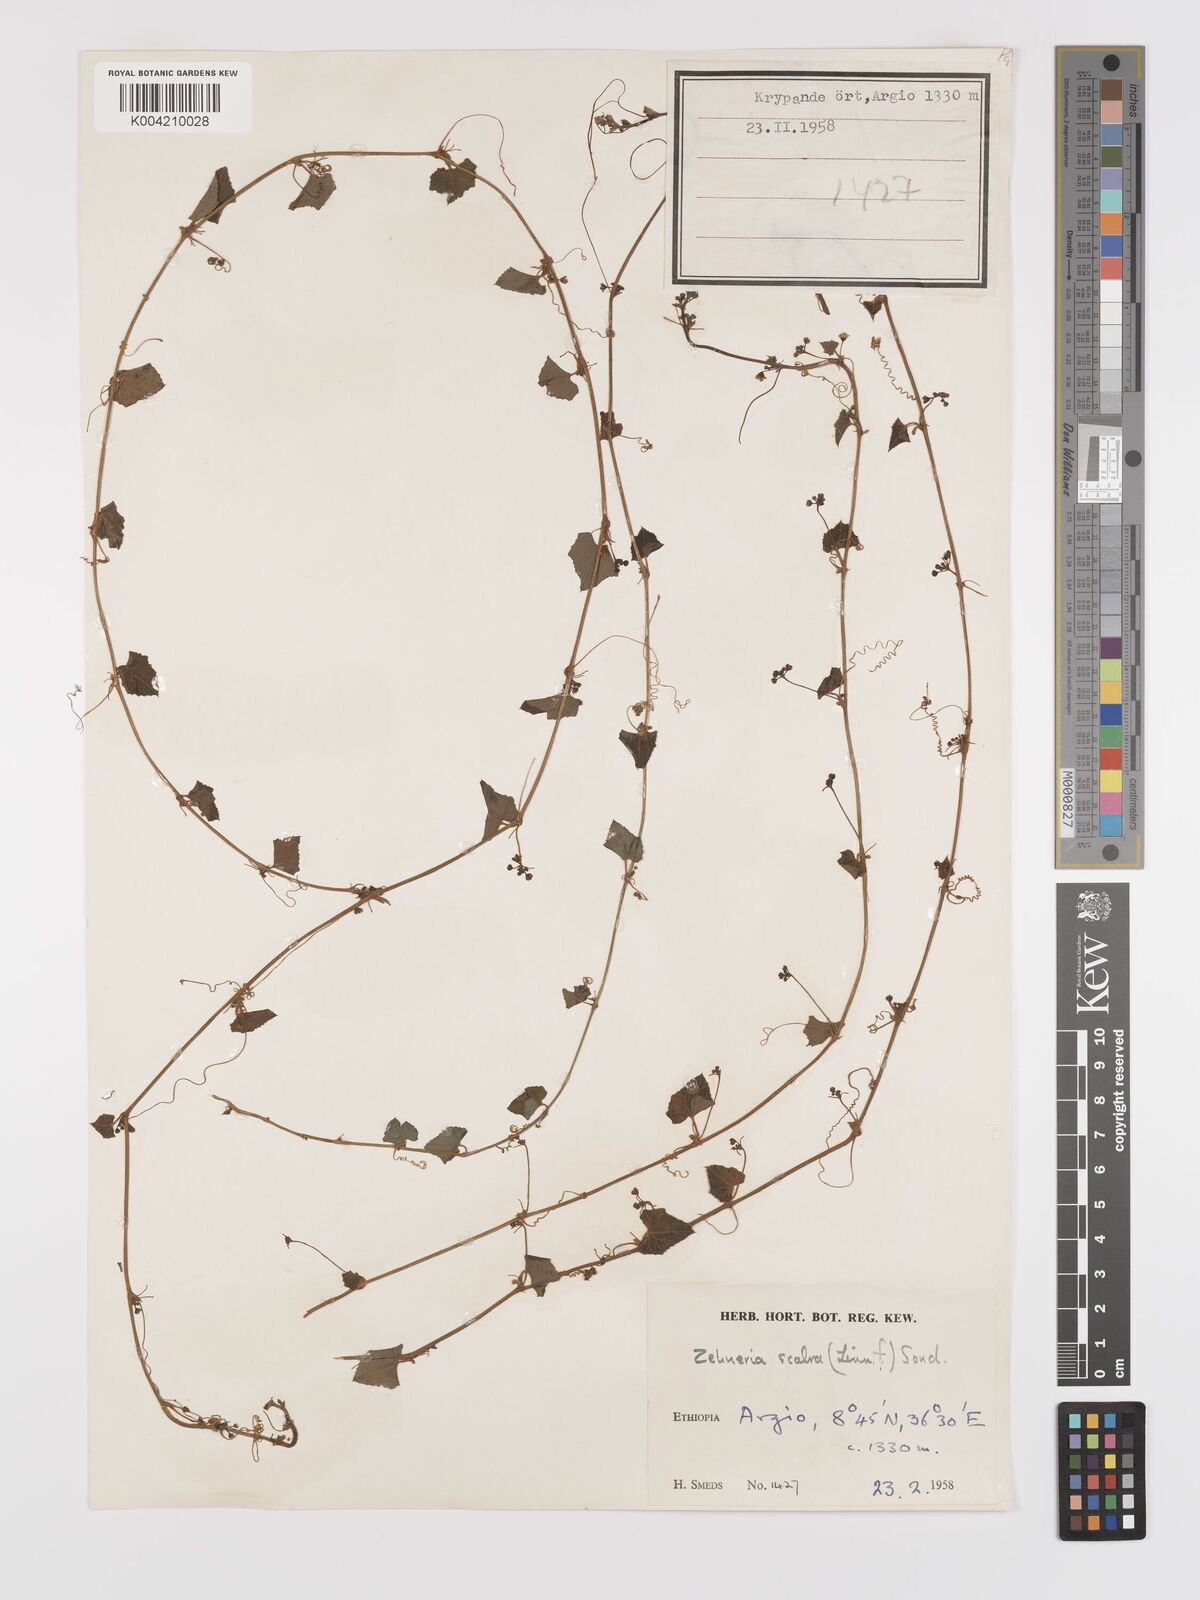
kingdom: Plantae
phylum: Tracheophyta
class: Magnoliopsida
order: Cucurbitales
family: Cucurbitaceae
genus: Zehneria
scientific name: Zehneria scabra
